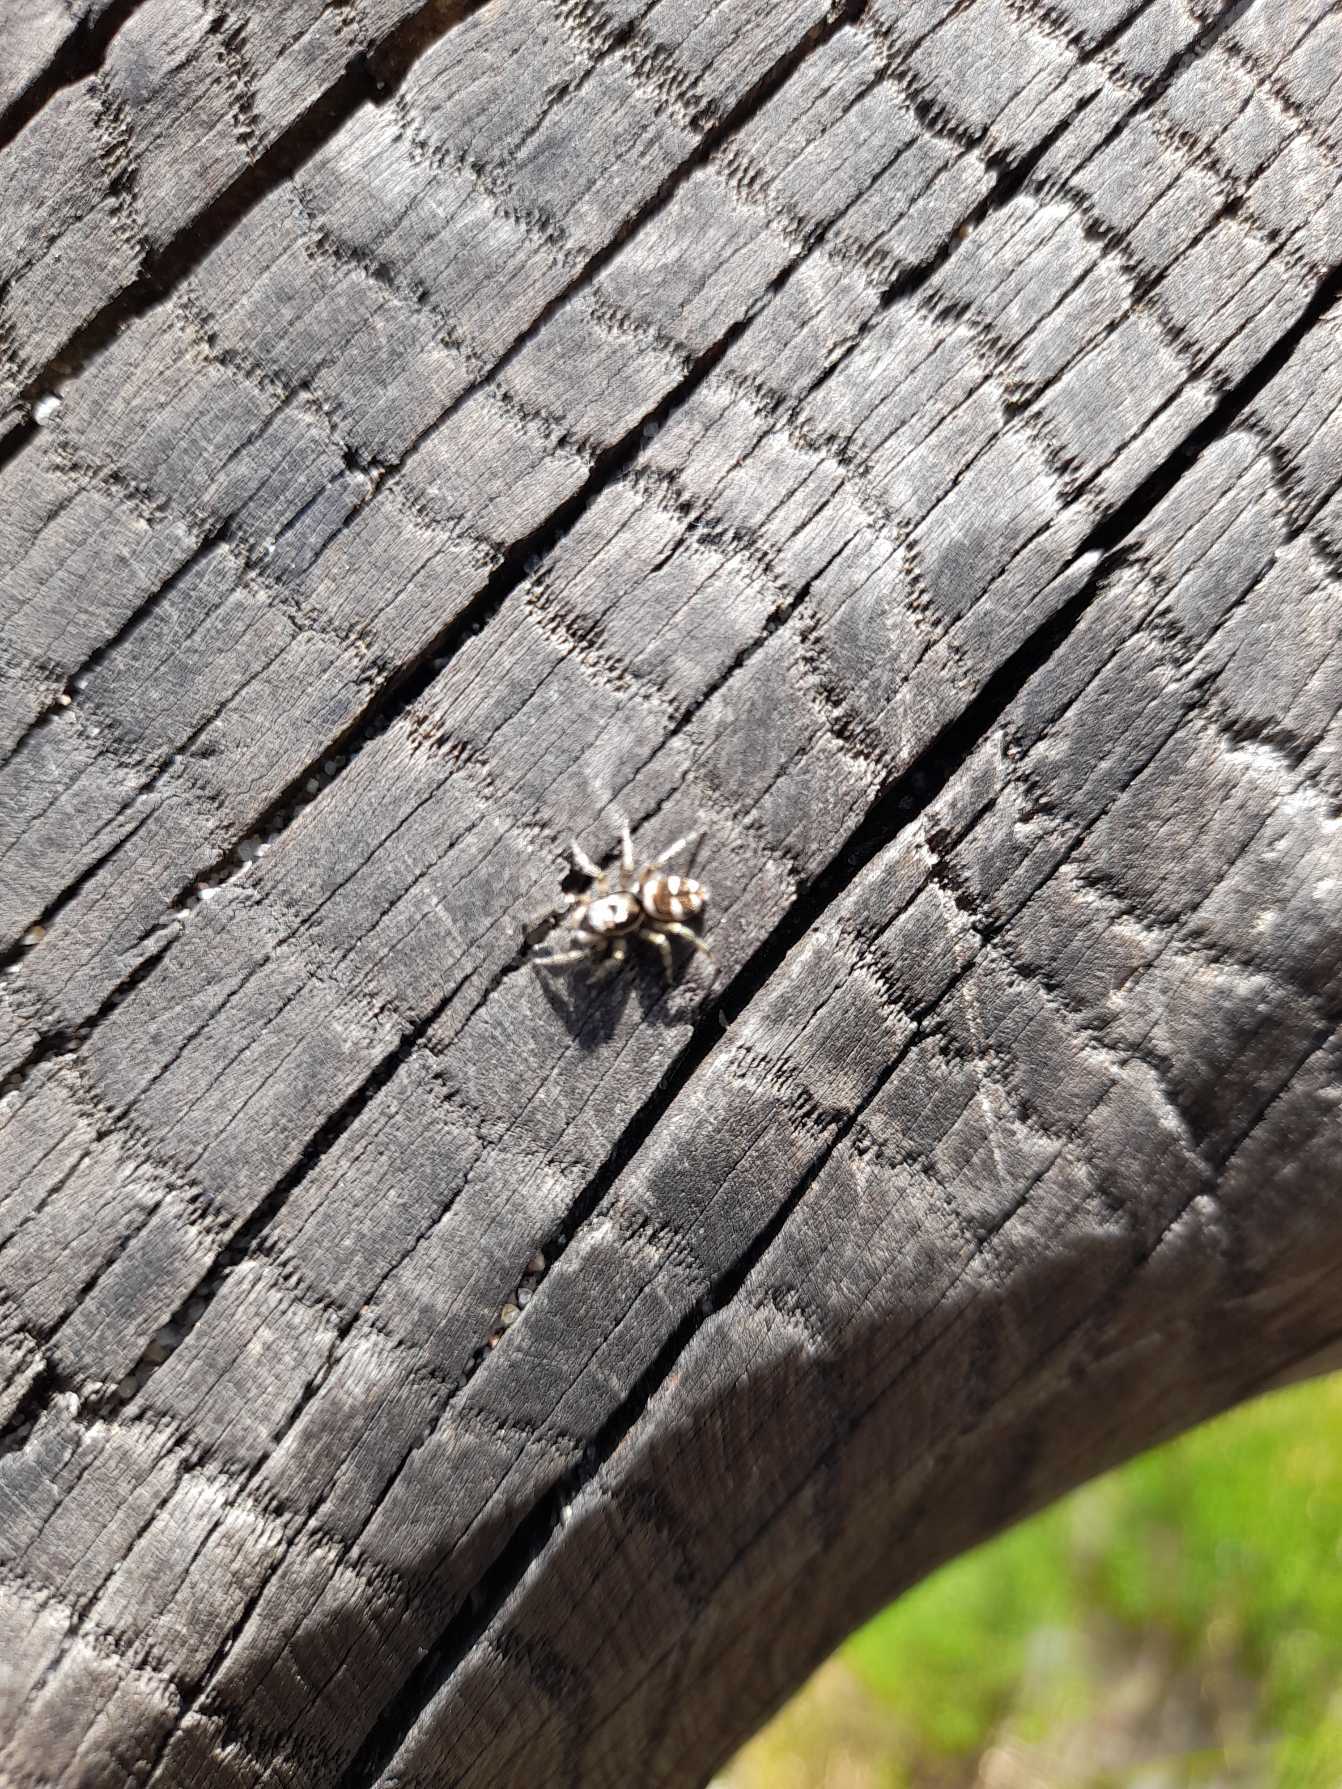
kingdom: Animalia
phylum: Arthropoda
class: Arachnida
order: Araneae
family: Salticidae
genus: Salticus
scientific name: Salticus scenicus
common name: Almindelig zebraedderkop
